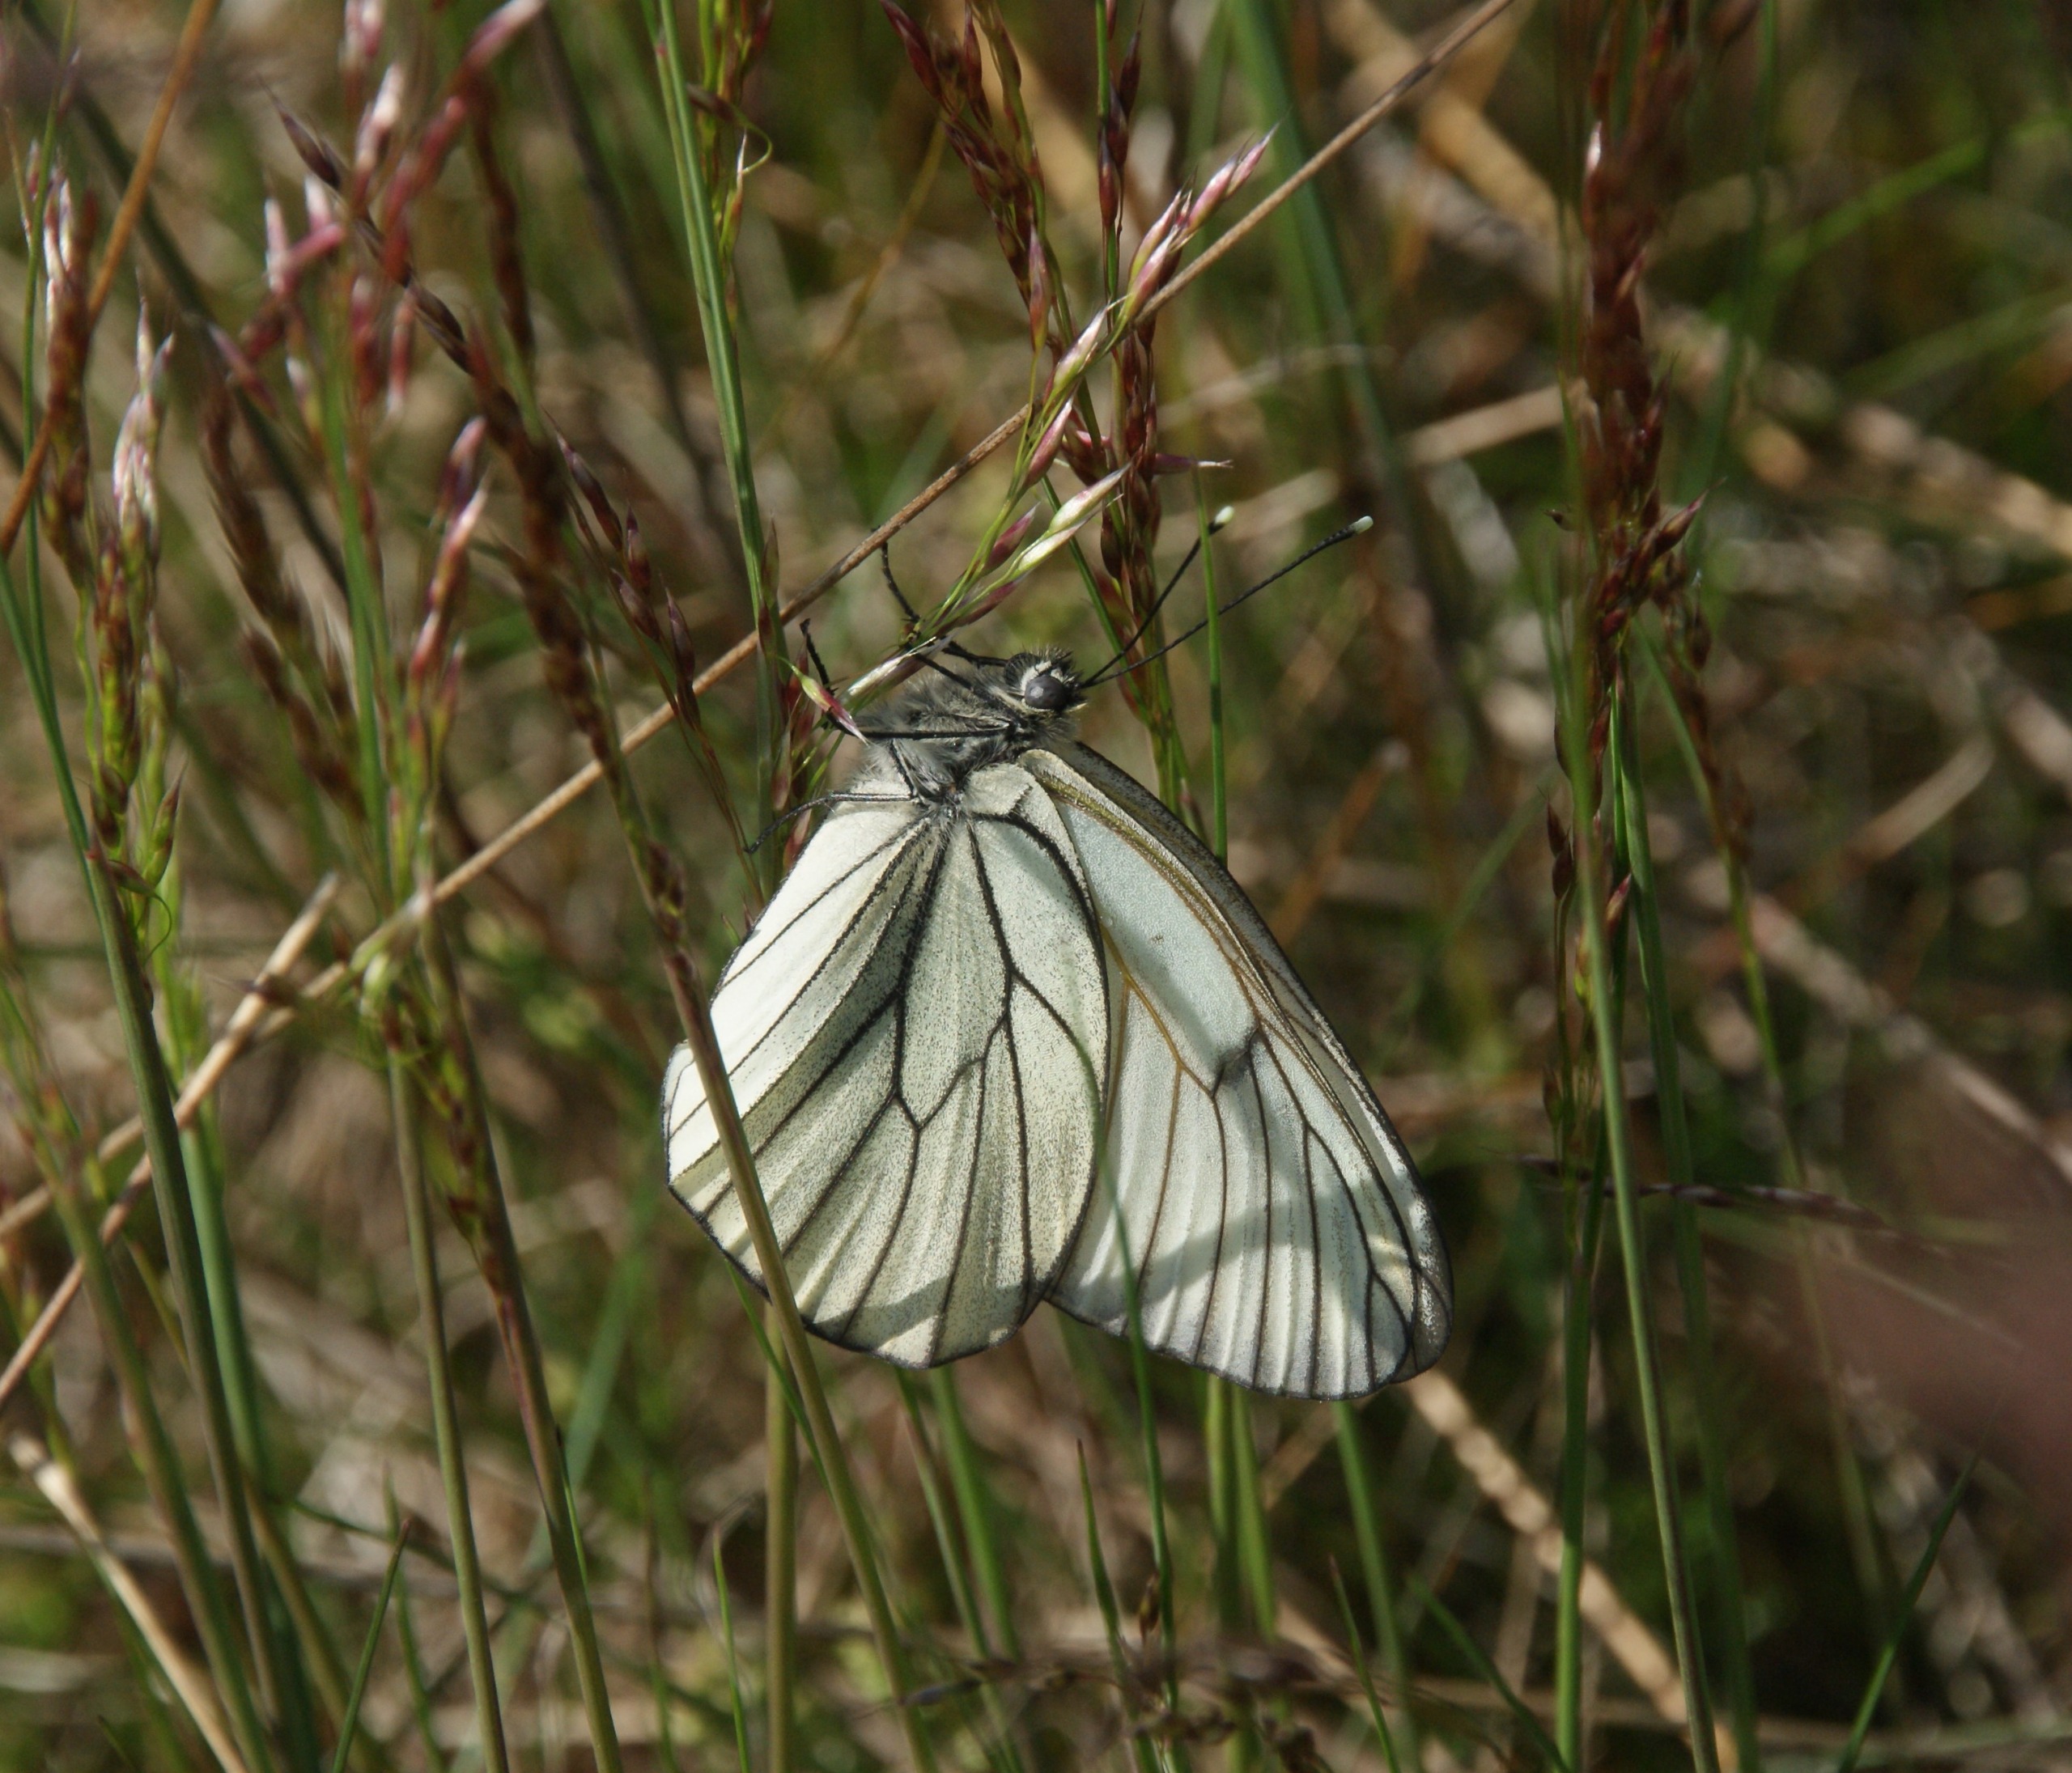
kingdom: Animalia
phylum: Arthropoda
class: Insecta
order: Lepidoptera
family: Pieridae
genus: Aporia
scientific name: Aporia crataegi
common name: Sortåret hvidvinge
